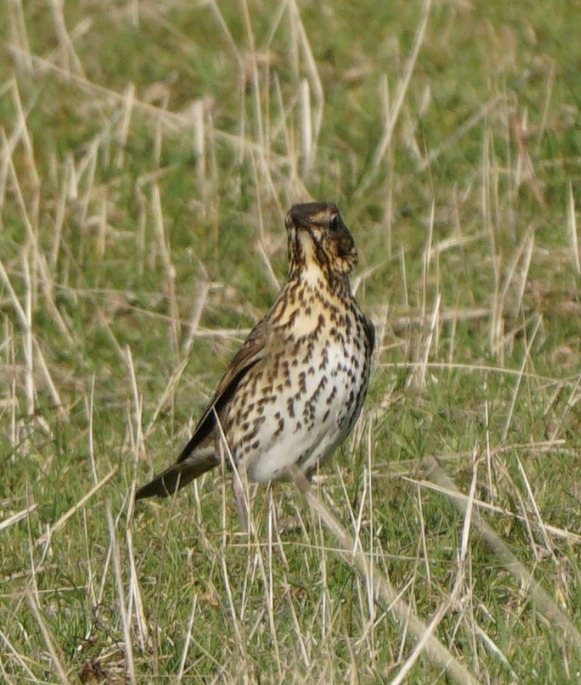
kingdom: Animalia
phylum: Chordata
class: Aves
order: Passeriformes
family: Turdidae
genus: Turdus
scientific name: Turdus philomelos
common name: Sangdrossel
